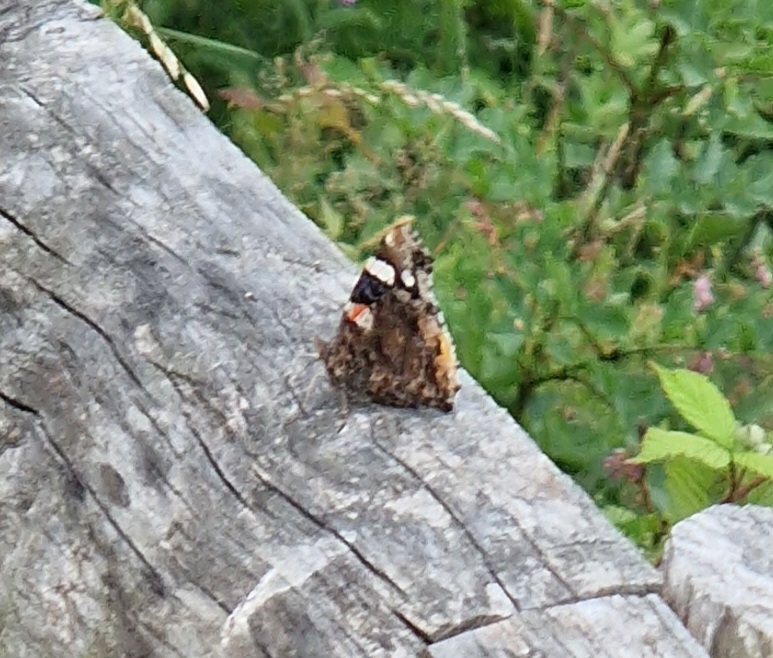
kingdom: Animalia
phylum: Arthropoda
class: Insecta
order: Lepidoptera
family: Nymphalidae
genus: Vanessa
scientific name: Vanessa atalanta
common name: Admiral
